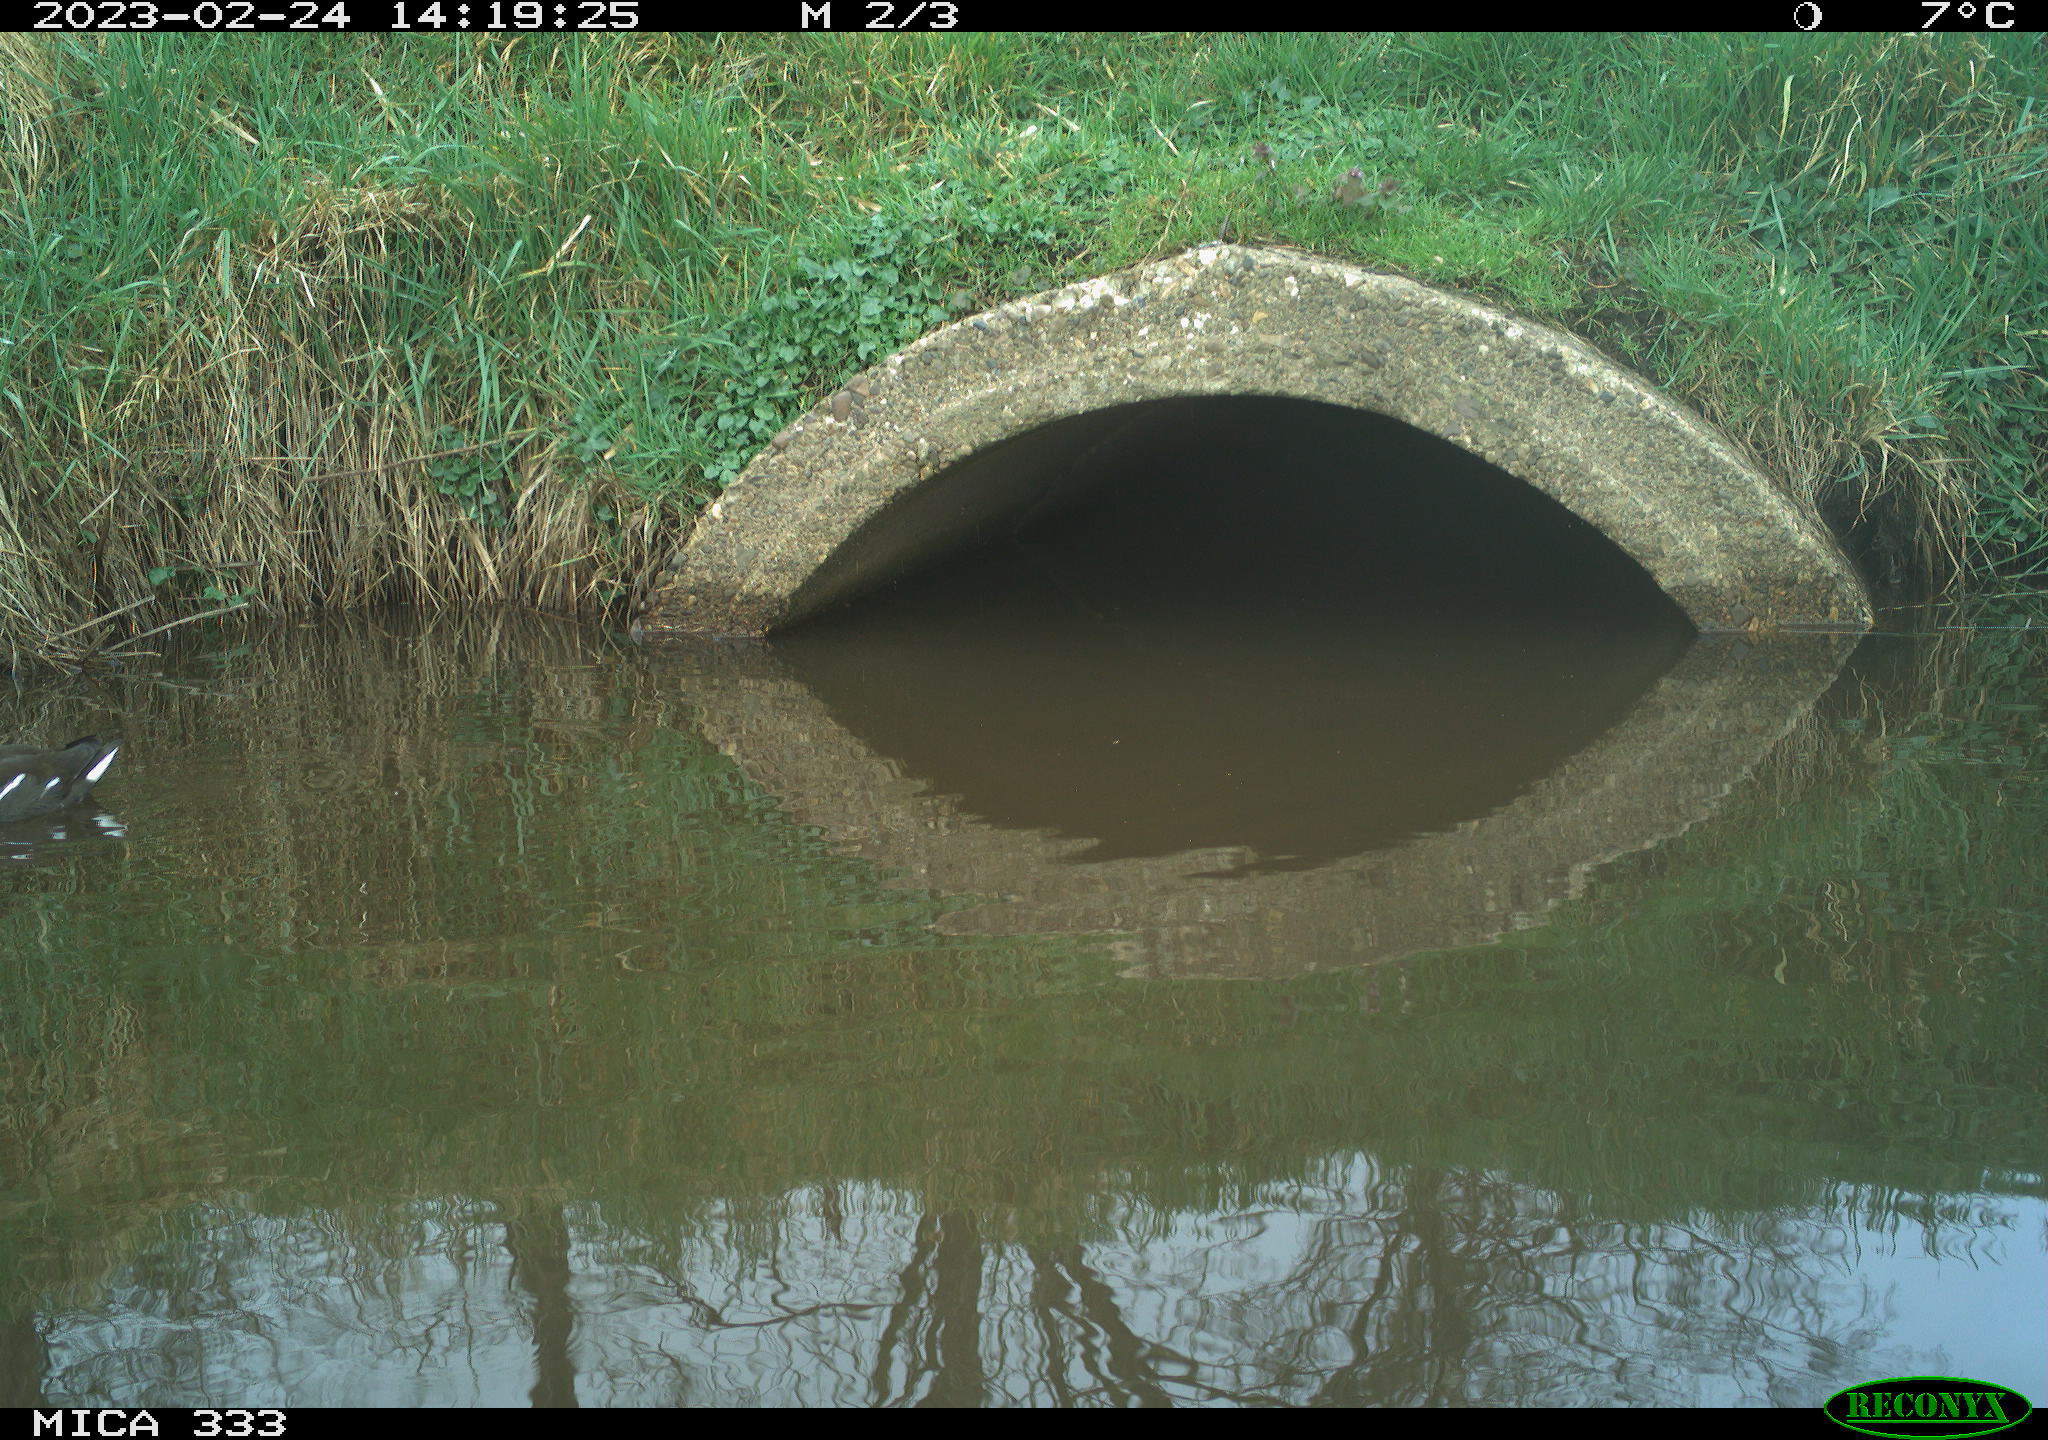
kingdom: Animalia
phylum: Chordata
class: Aves
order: Gruiformes
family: Rallidae
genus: Gallinula
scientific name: Gallinula chloropus
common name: Common moorhen
